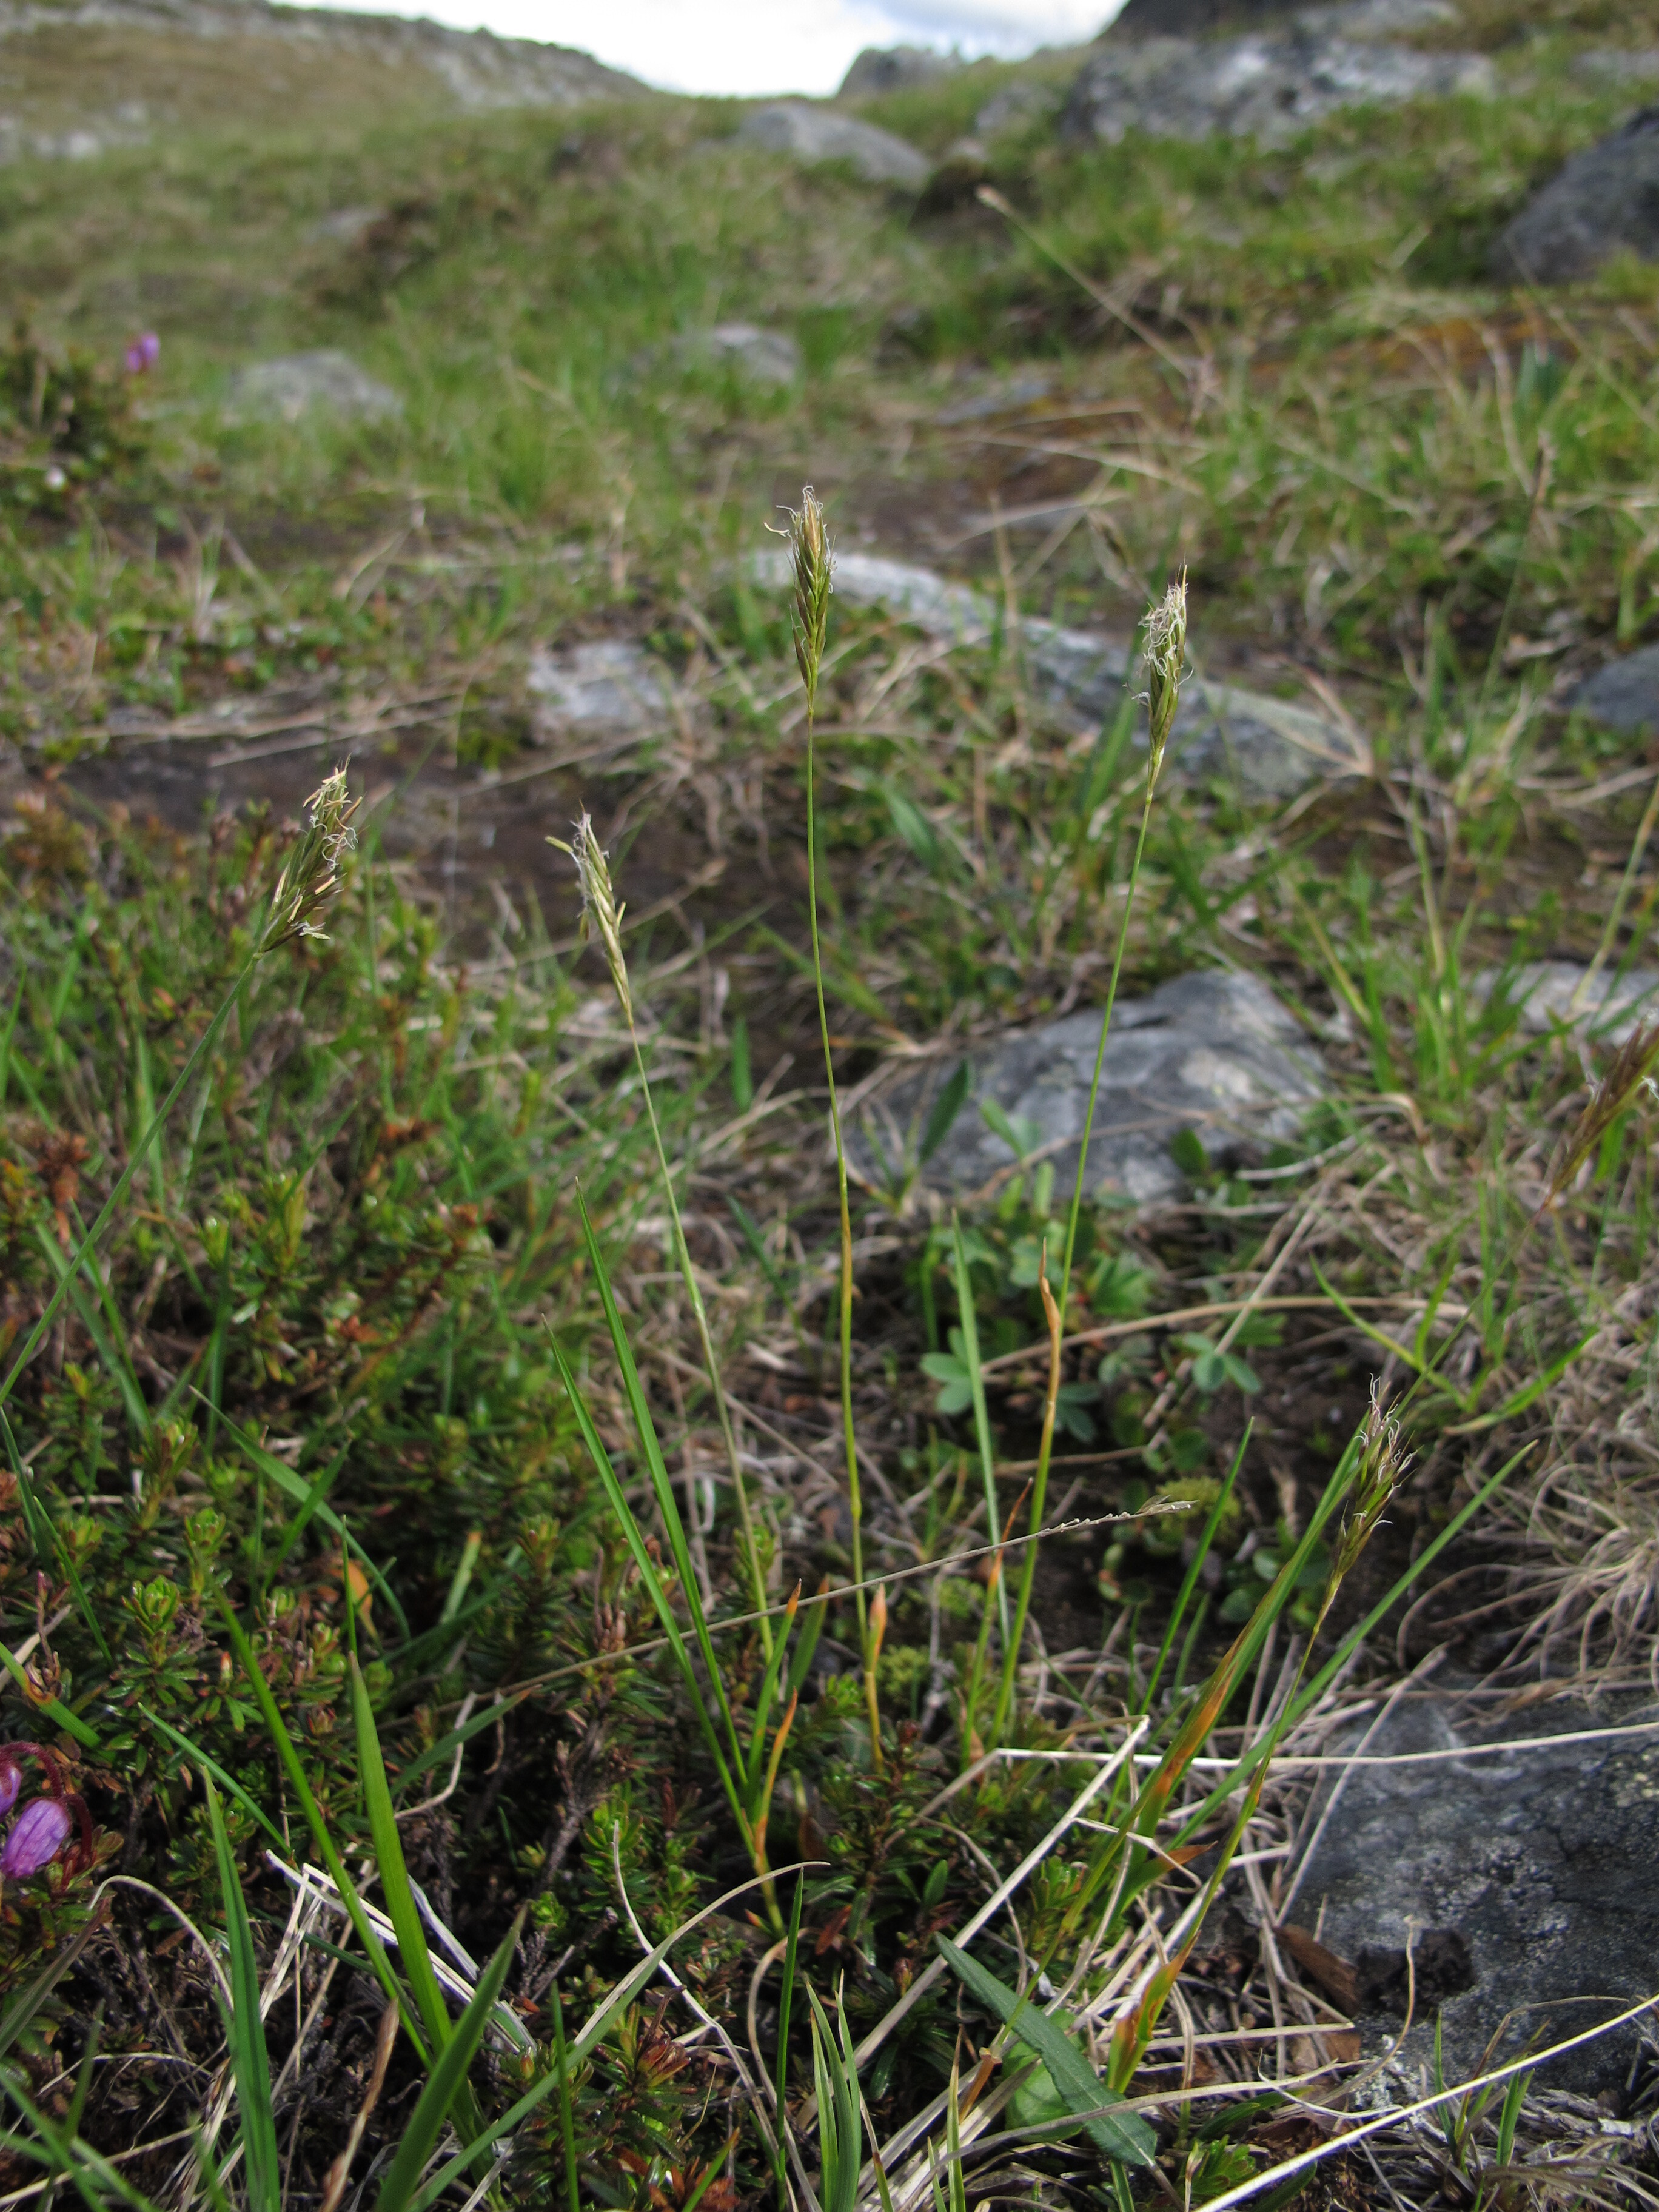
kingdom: Plantae
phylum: Tracheophyta
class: Liliopsida
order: Poales
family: Poaceae
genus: Anthoxanthum
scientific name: Anthoxanthum nipponicum
